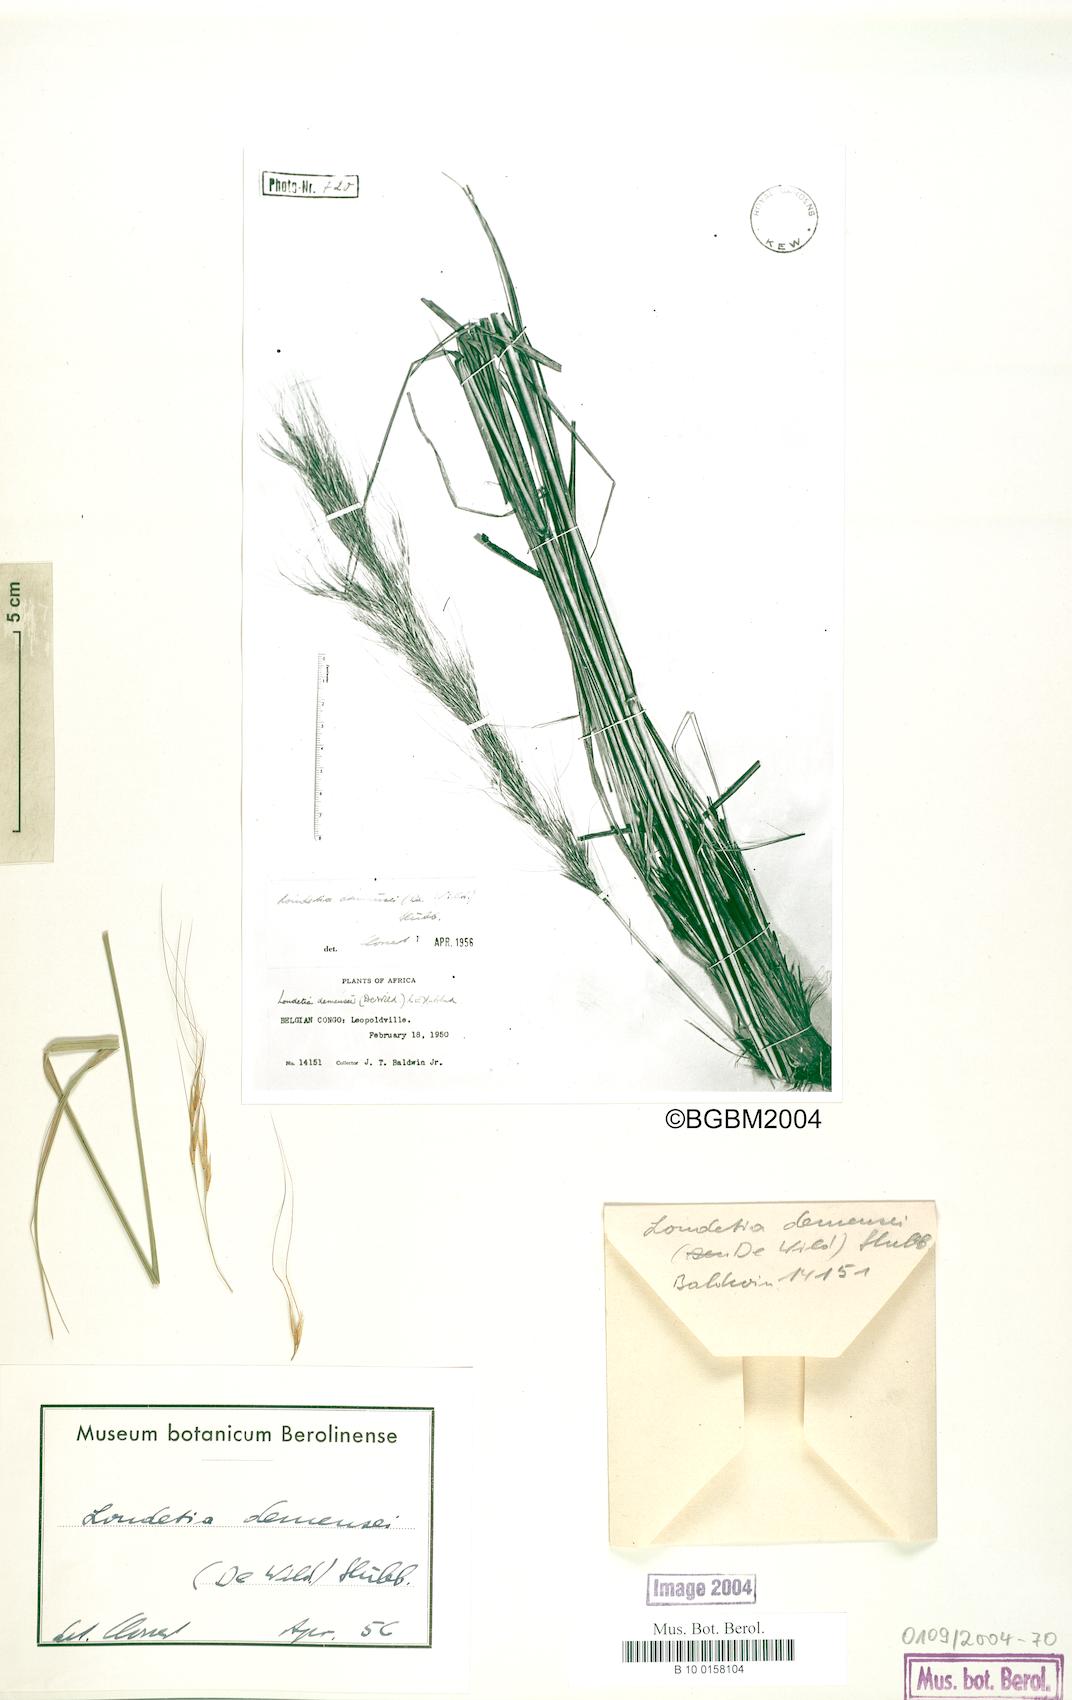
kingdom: Plantae
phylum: Tracheophyta
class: Liliopsida
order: Poales
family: Poaceae
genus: Loudetia
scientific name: Loudetia demeusei
